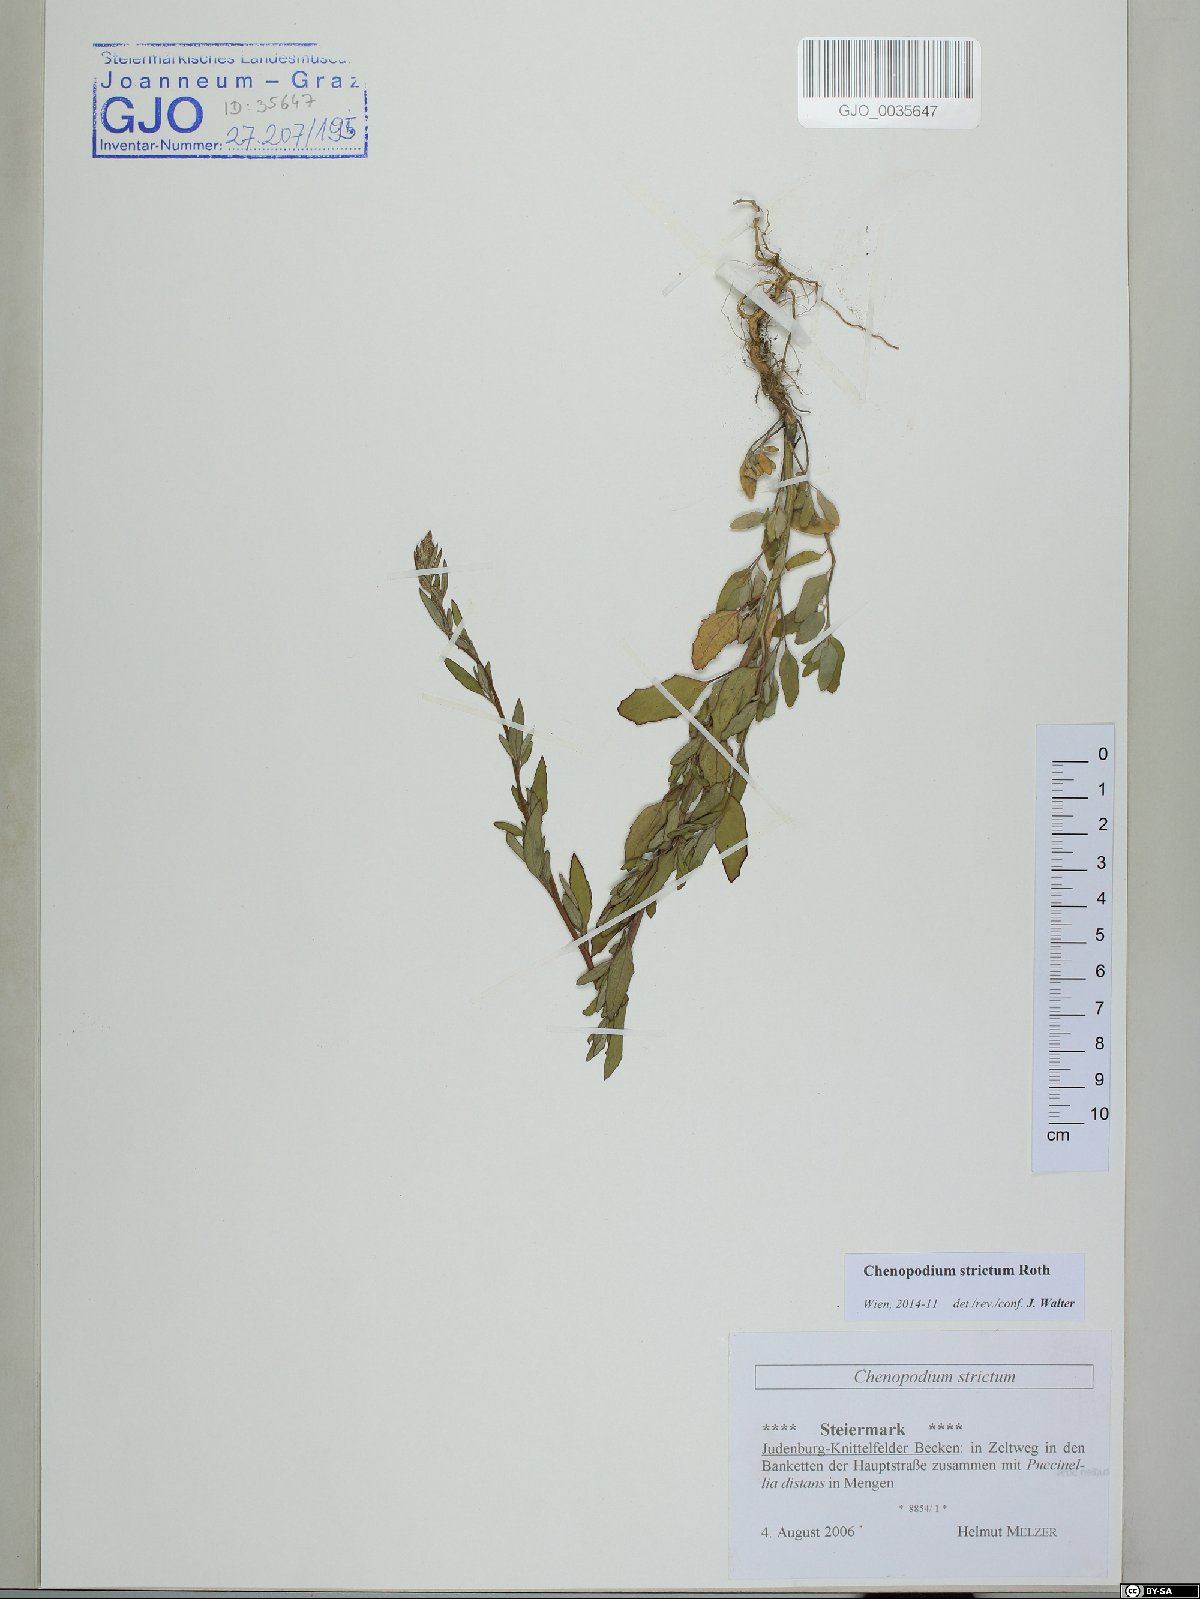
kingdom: Plantae
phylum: Tracheophyta
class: Magnoliopsida
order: Caryophyllales
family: Amaranthaceae
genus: Chenopodium
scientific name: Chenopodium album
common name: Fat-hen
